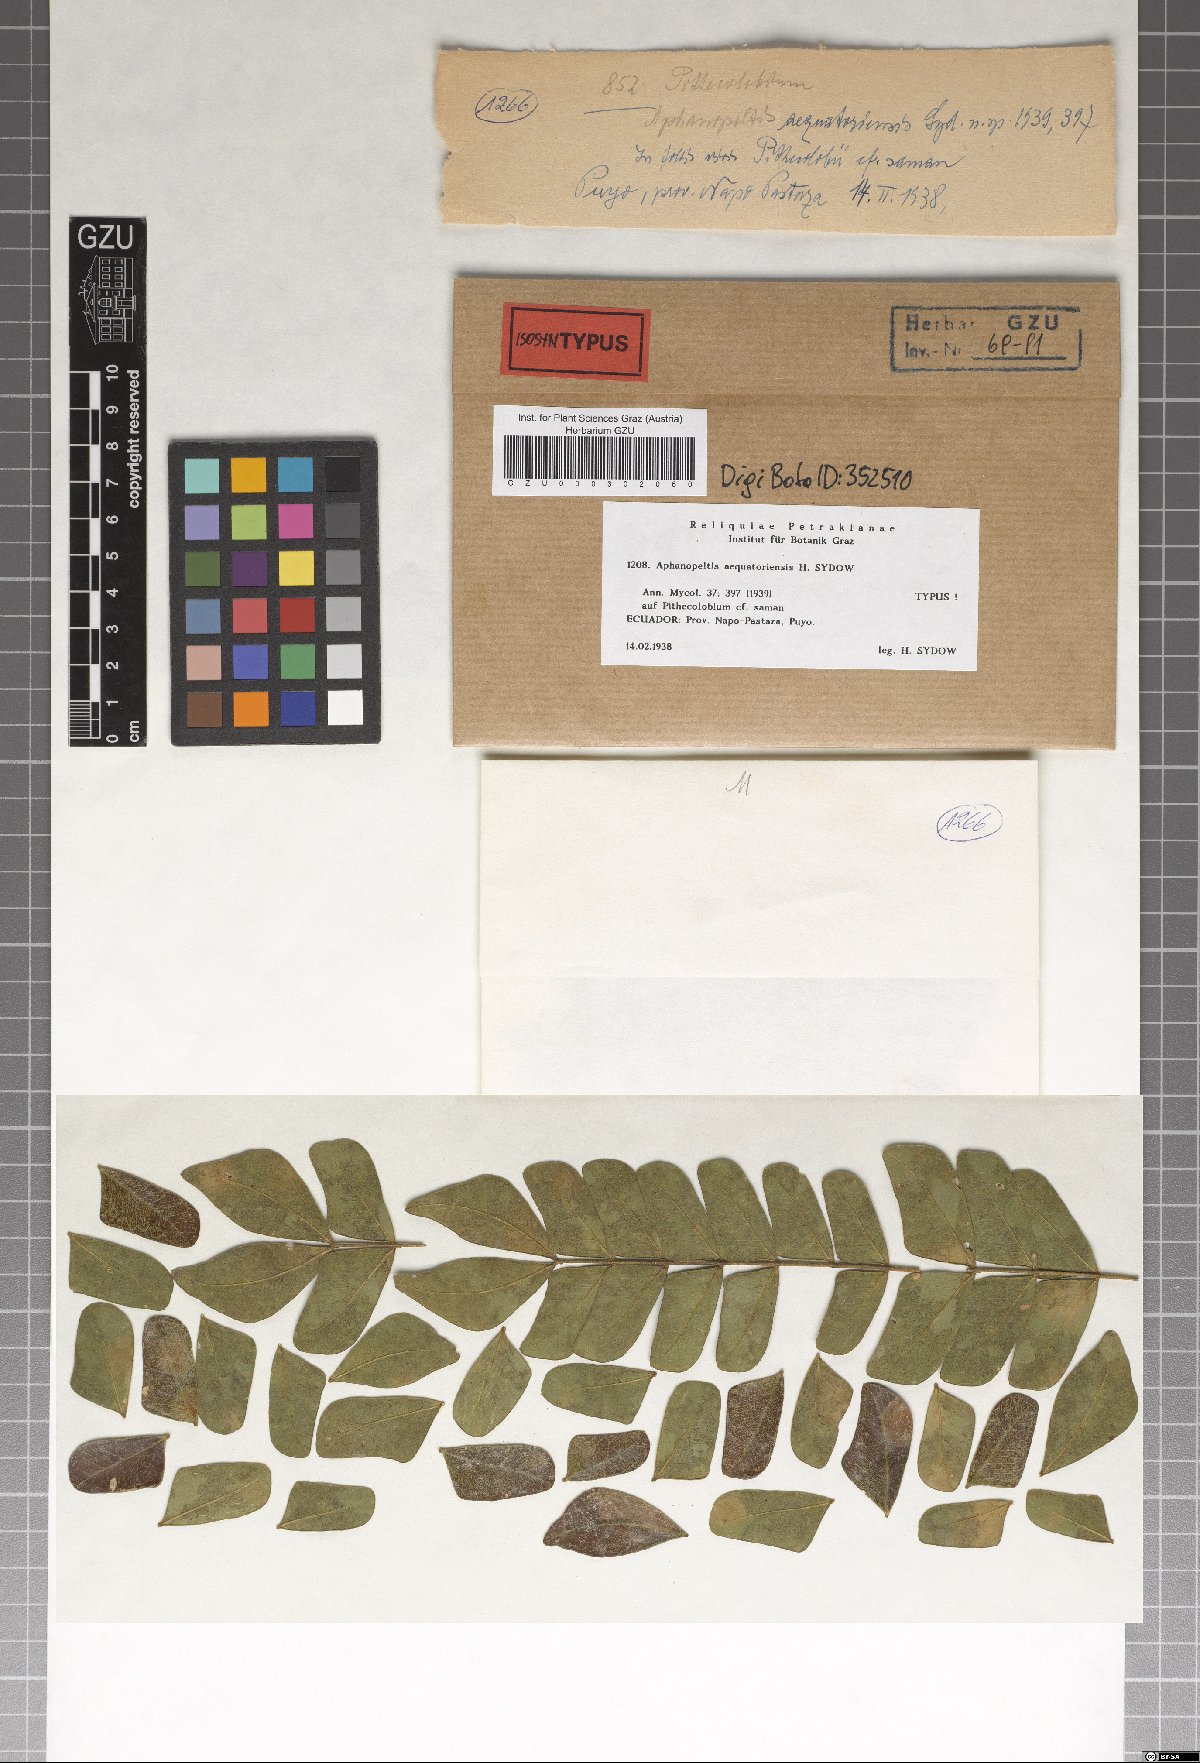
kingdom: Fungi
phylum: Ascomycota
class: Dothideomycetes
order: Asterinales
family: Asterinaceae
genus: Aphanopeltis
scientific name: Aphanopeltis aequatoriensis
